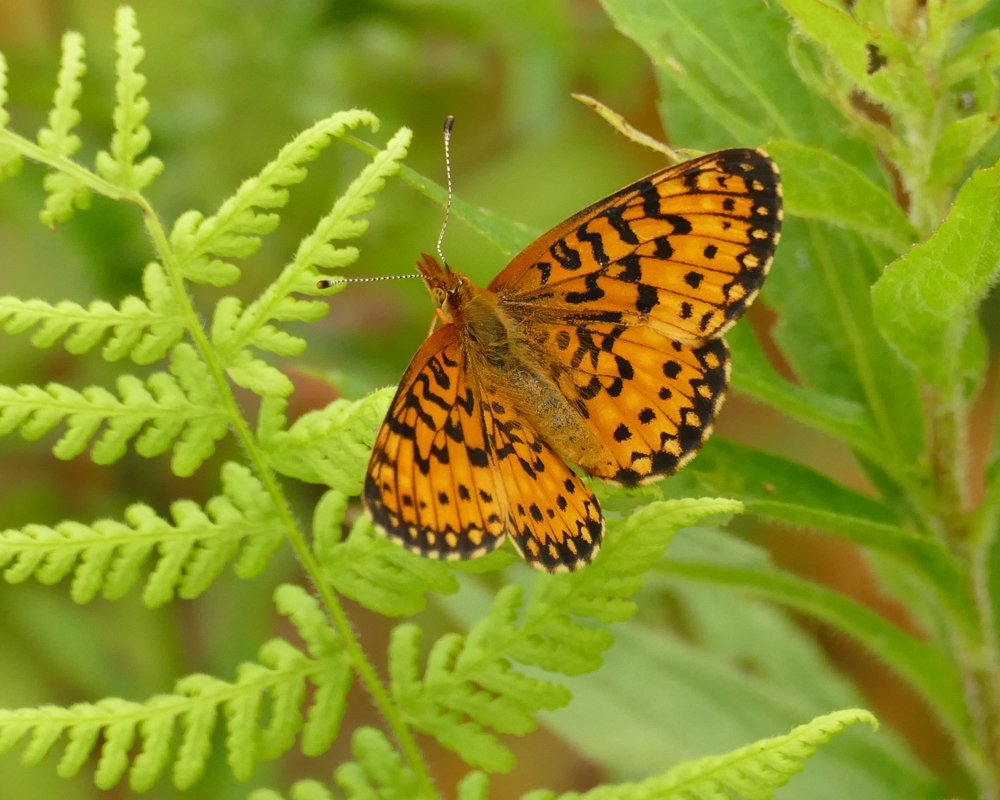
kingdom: Animalia
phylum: Arthropoda
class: Insecta
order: Lepidoptera
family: Nymphalidae
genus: Boloria
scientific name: Boloria selene
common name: Silver-bordered Fritillary
